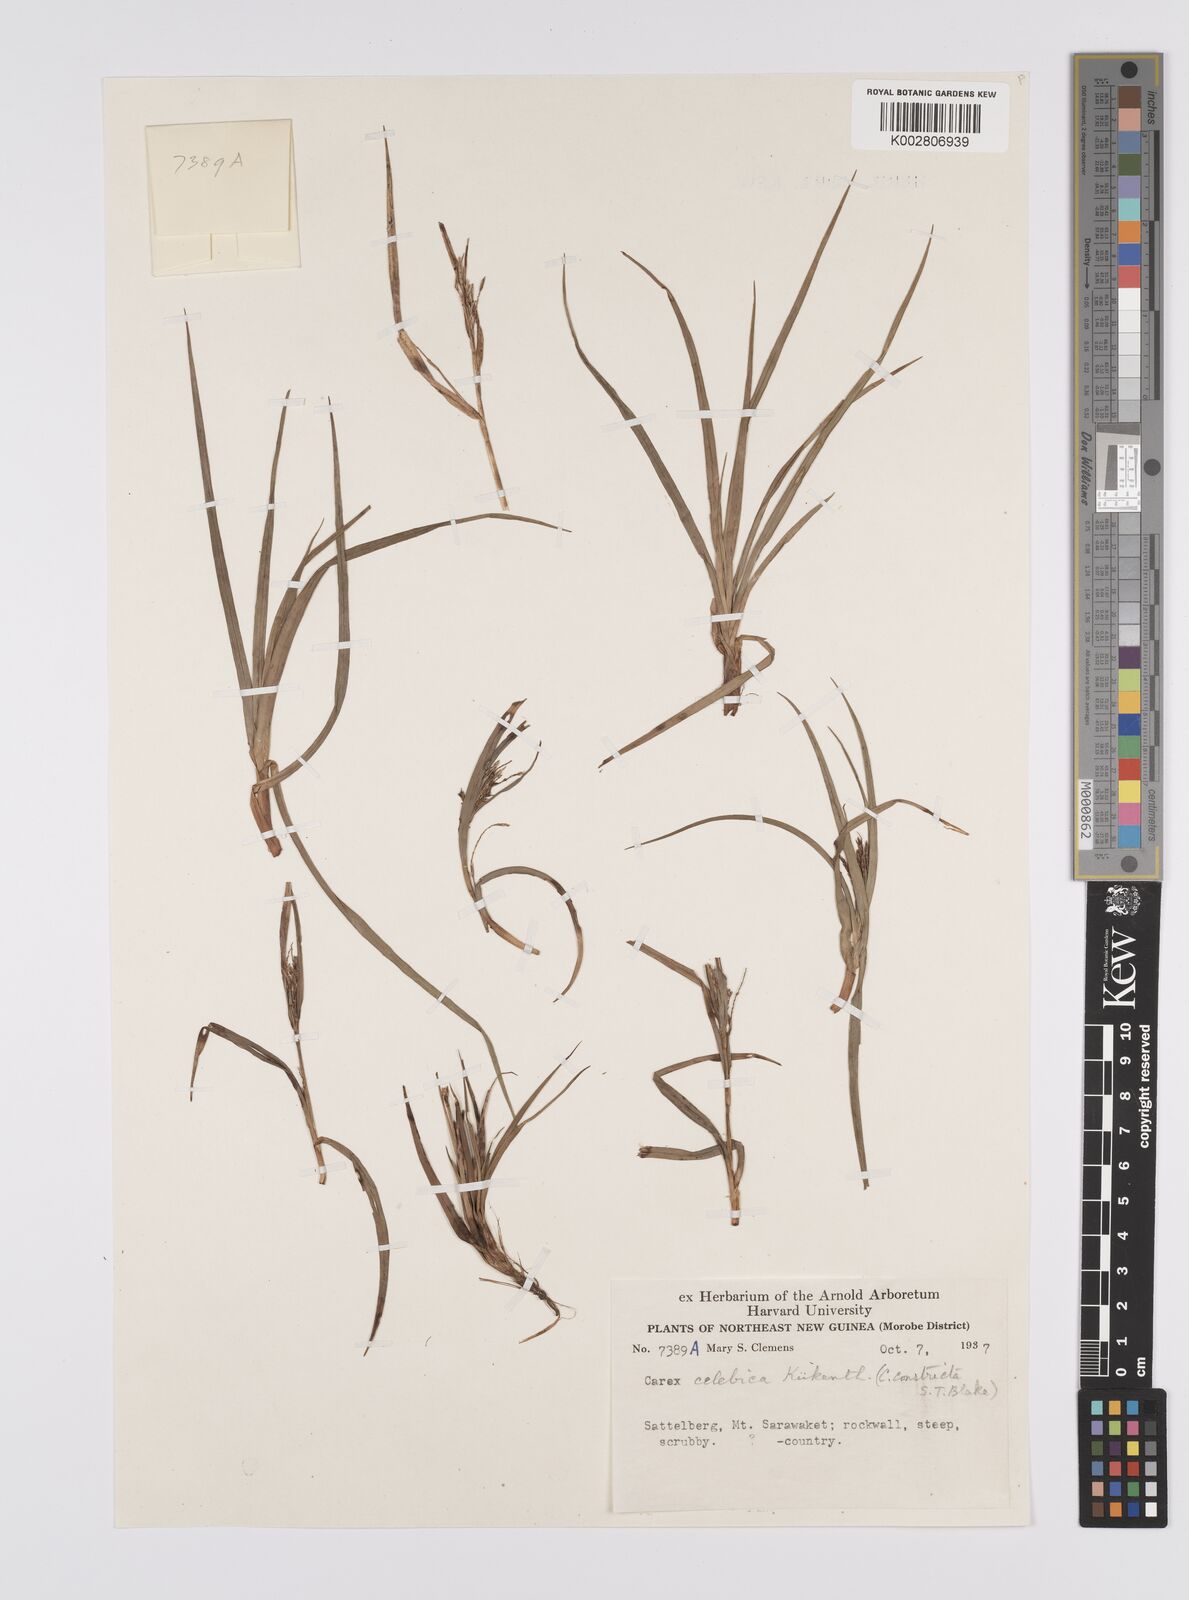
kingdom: Plantae
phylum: Tracheophyta
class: Liliopsida
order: Poales
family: Cyperaceae
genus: Carex
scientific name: Carex celebica
